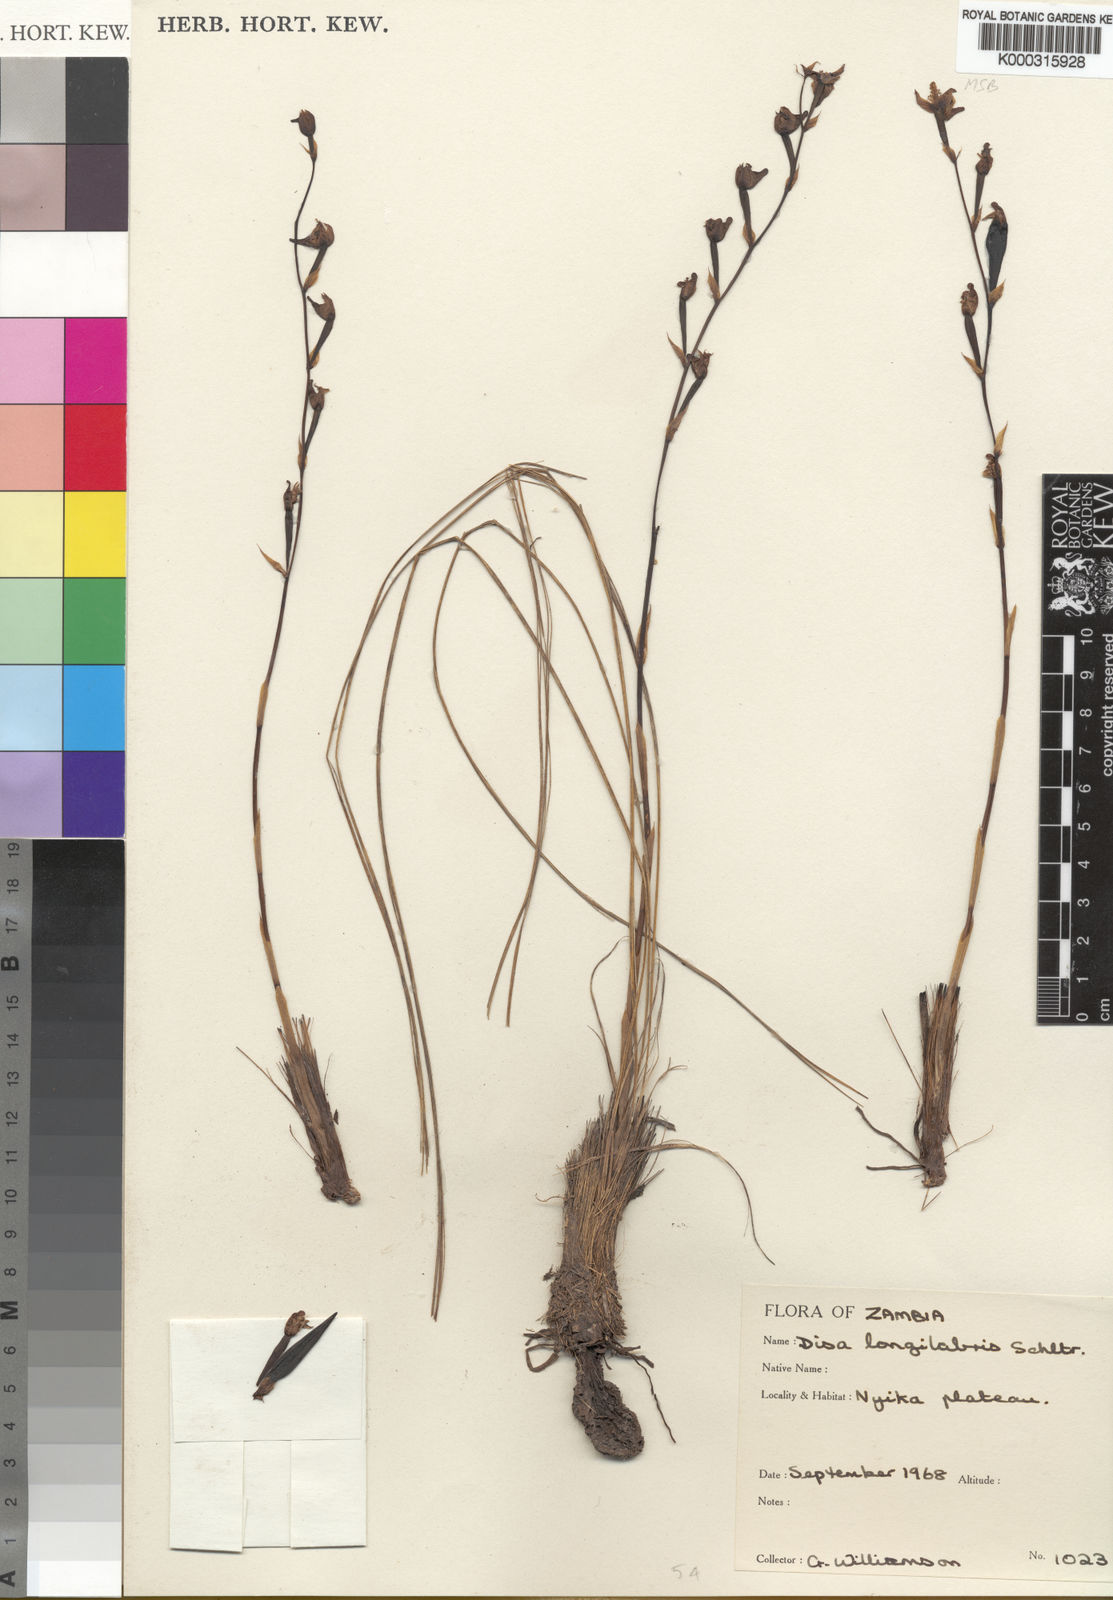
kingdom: Plantae
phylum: Tracheophyta
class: Liliopsida
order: Asparagales
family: Orchidaceae
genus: Disa
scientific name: Disa praecox
